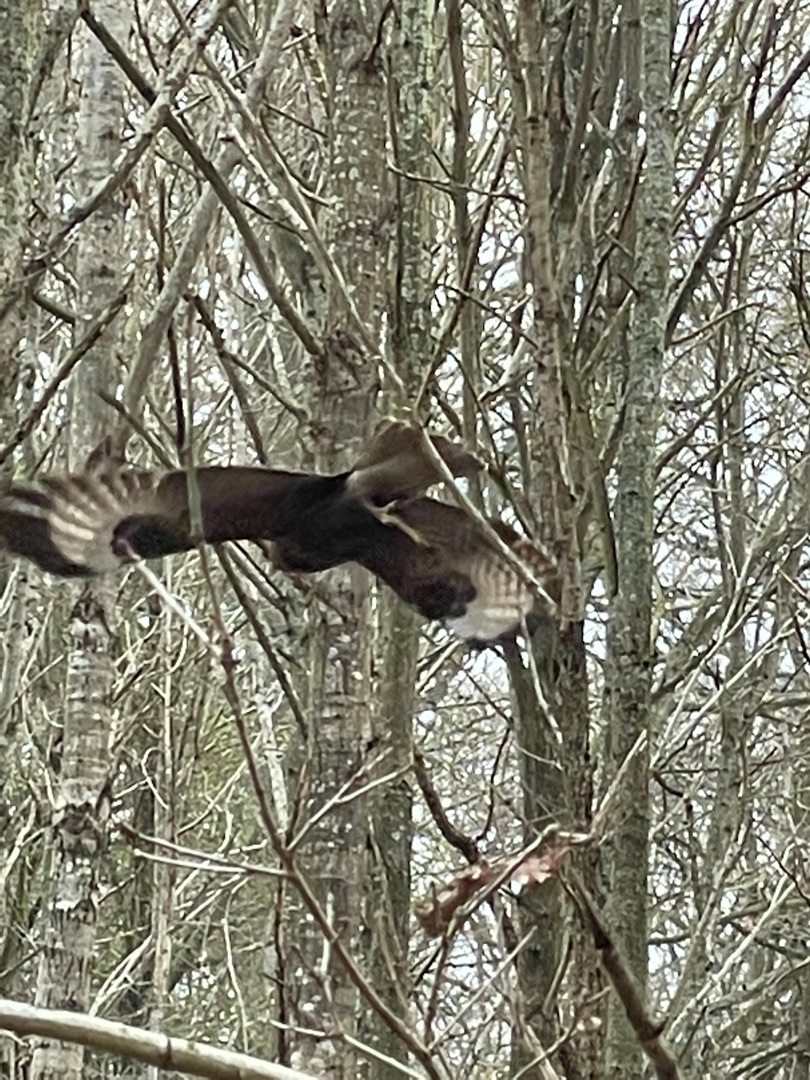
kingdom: Animalia
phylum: Chordata
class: Aves
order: Accipitriformes
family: Accipitridae
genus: Buteo
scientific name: Buteo buteo
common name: Musvåge
